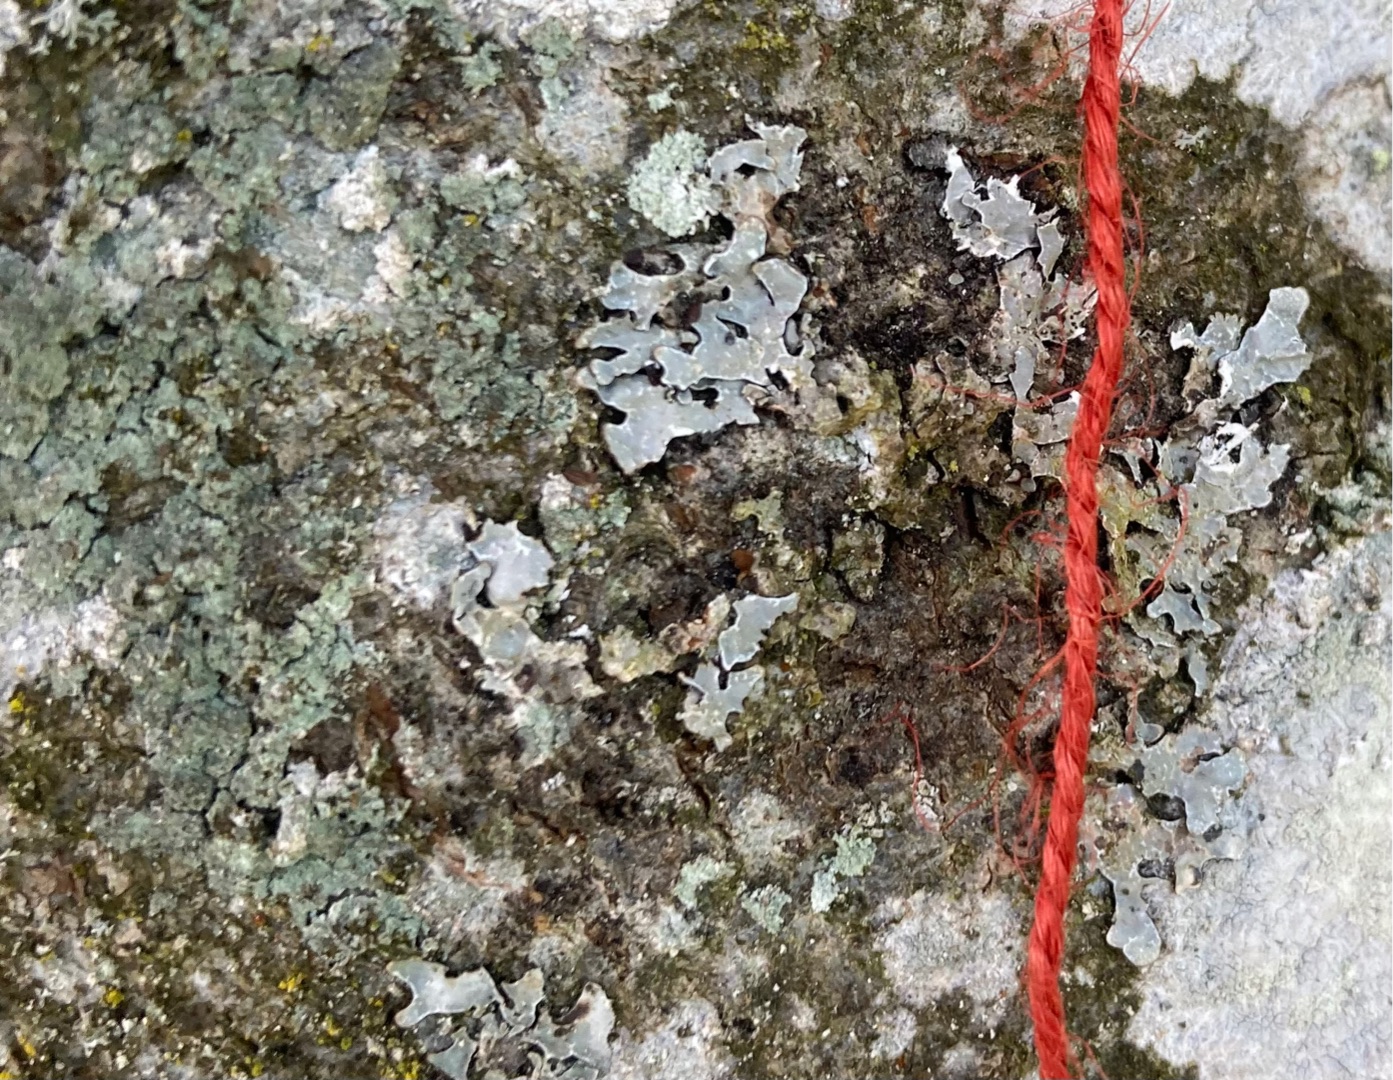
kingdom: Fungi
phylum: Ascomycota
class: Lecanoromycetes
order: Lecanorales
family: Parmeliaceae
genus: Parmelia
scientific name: Parmelia sulcata
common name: Rynket skållav
